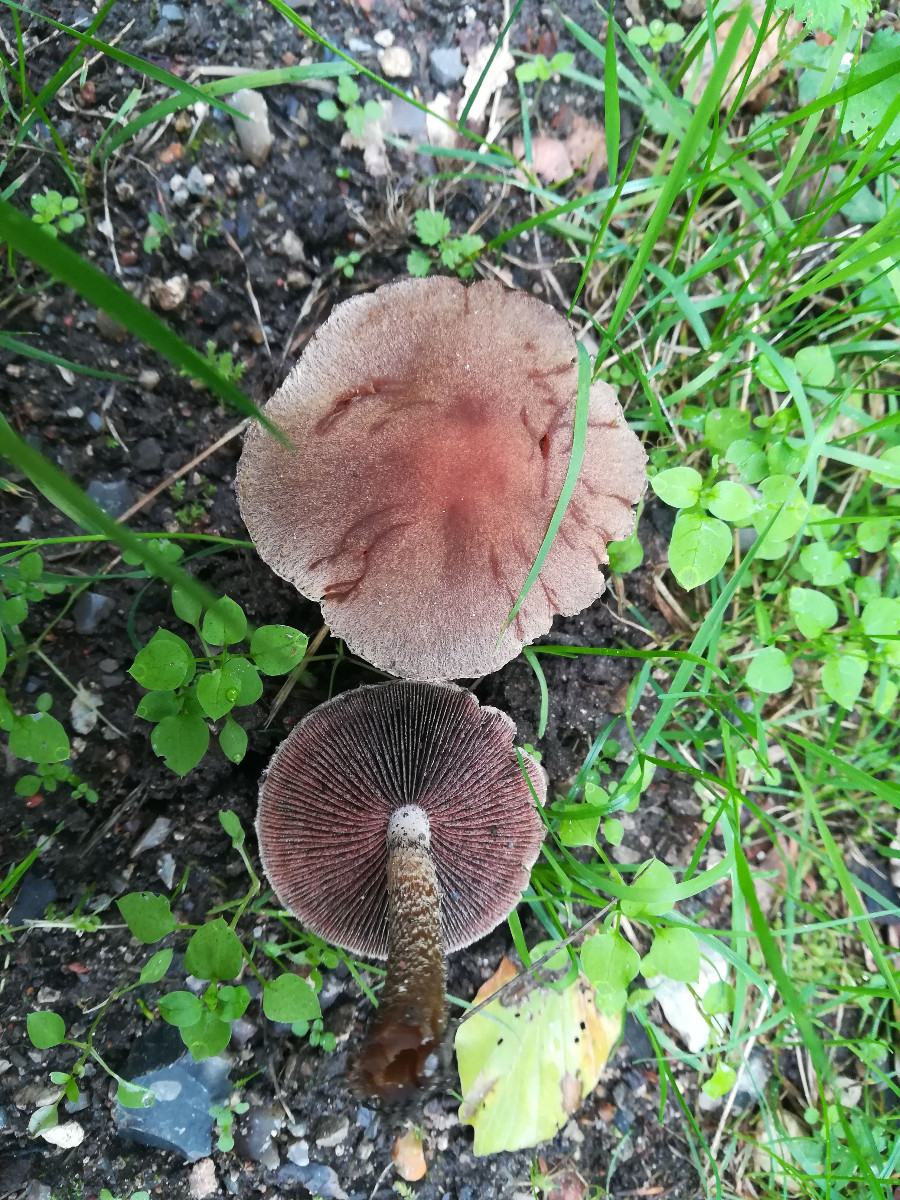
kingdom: Fungi
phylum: Basidiomycota
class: Agaricomycetes
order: Agaricales
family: Psathyrellaceae
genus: Lacrymaria
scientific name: Lacrymaria lacrymabunda
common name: grædende mørkhat
